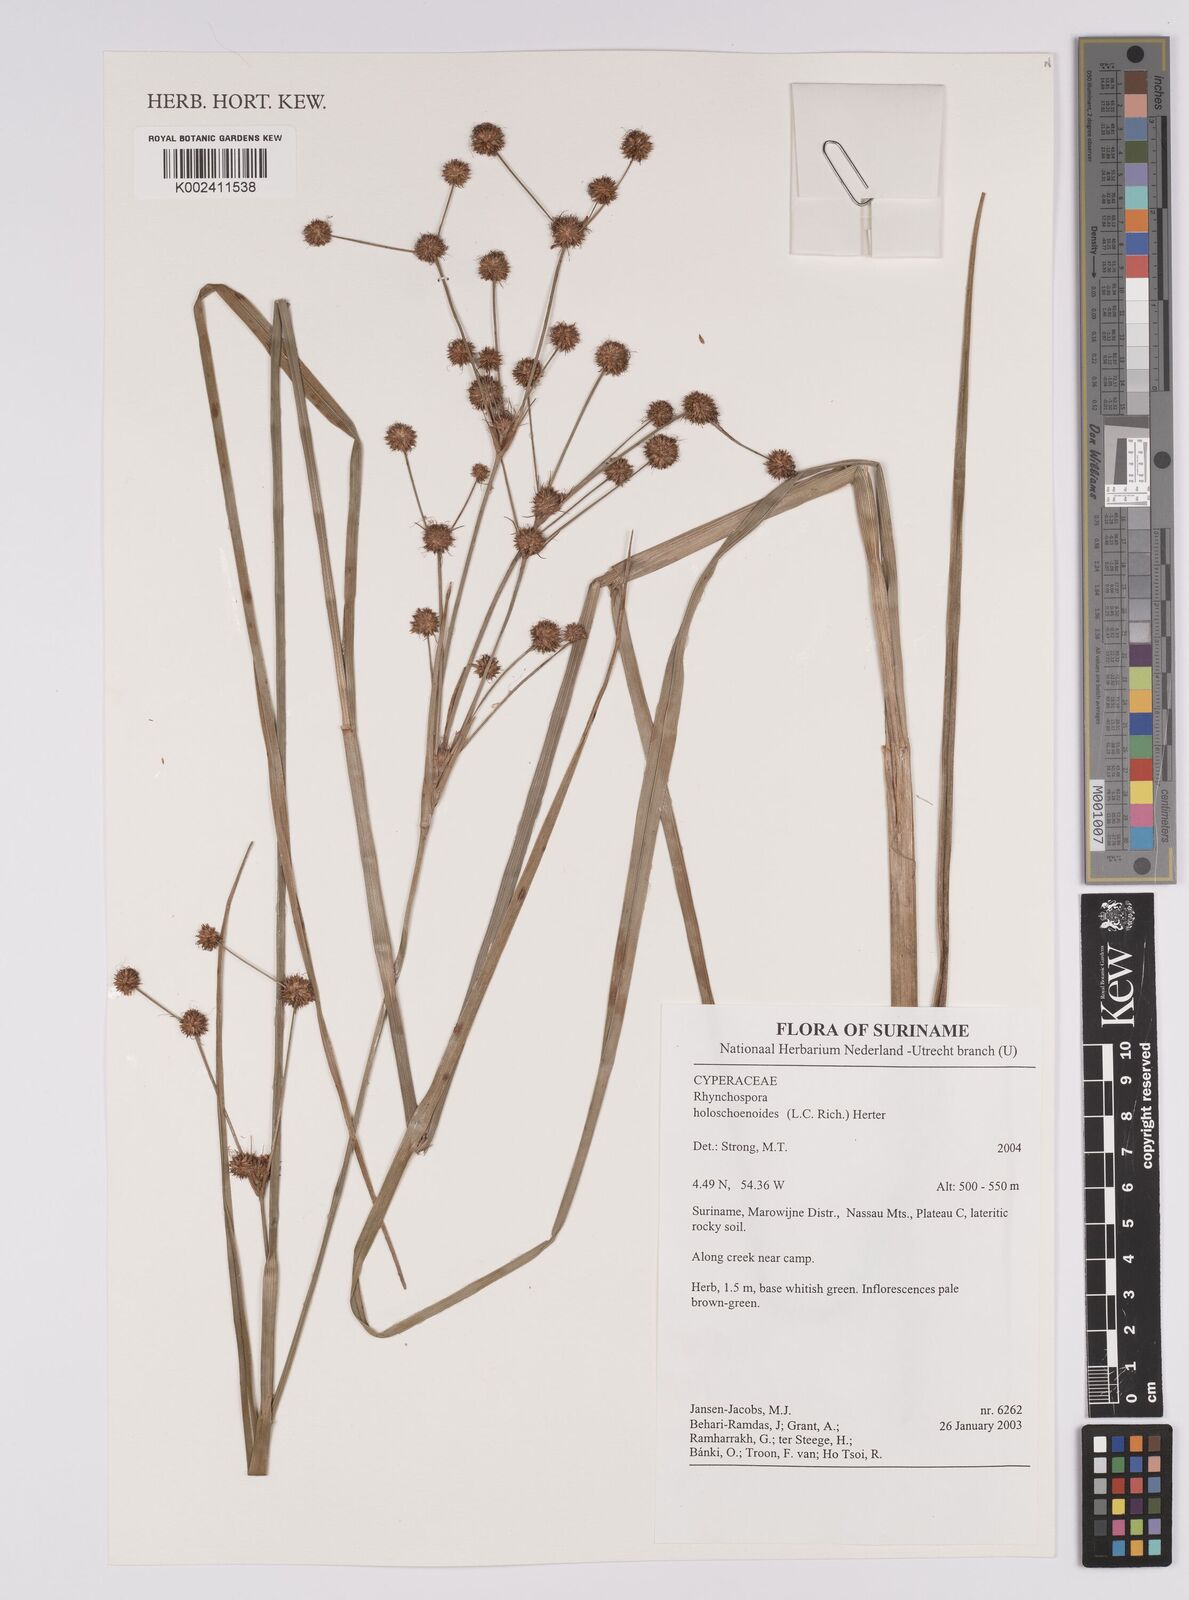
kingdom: Plantae
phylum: Tracheophyta
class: Liliopsida
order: Poales
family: Cyperaceae
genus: Rhynchospora
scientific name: Rhynchospora holoschoenoides
